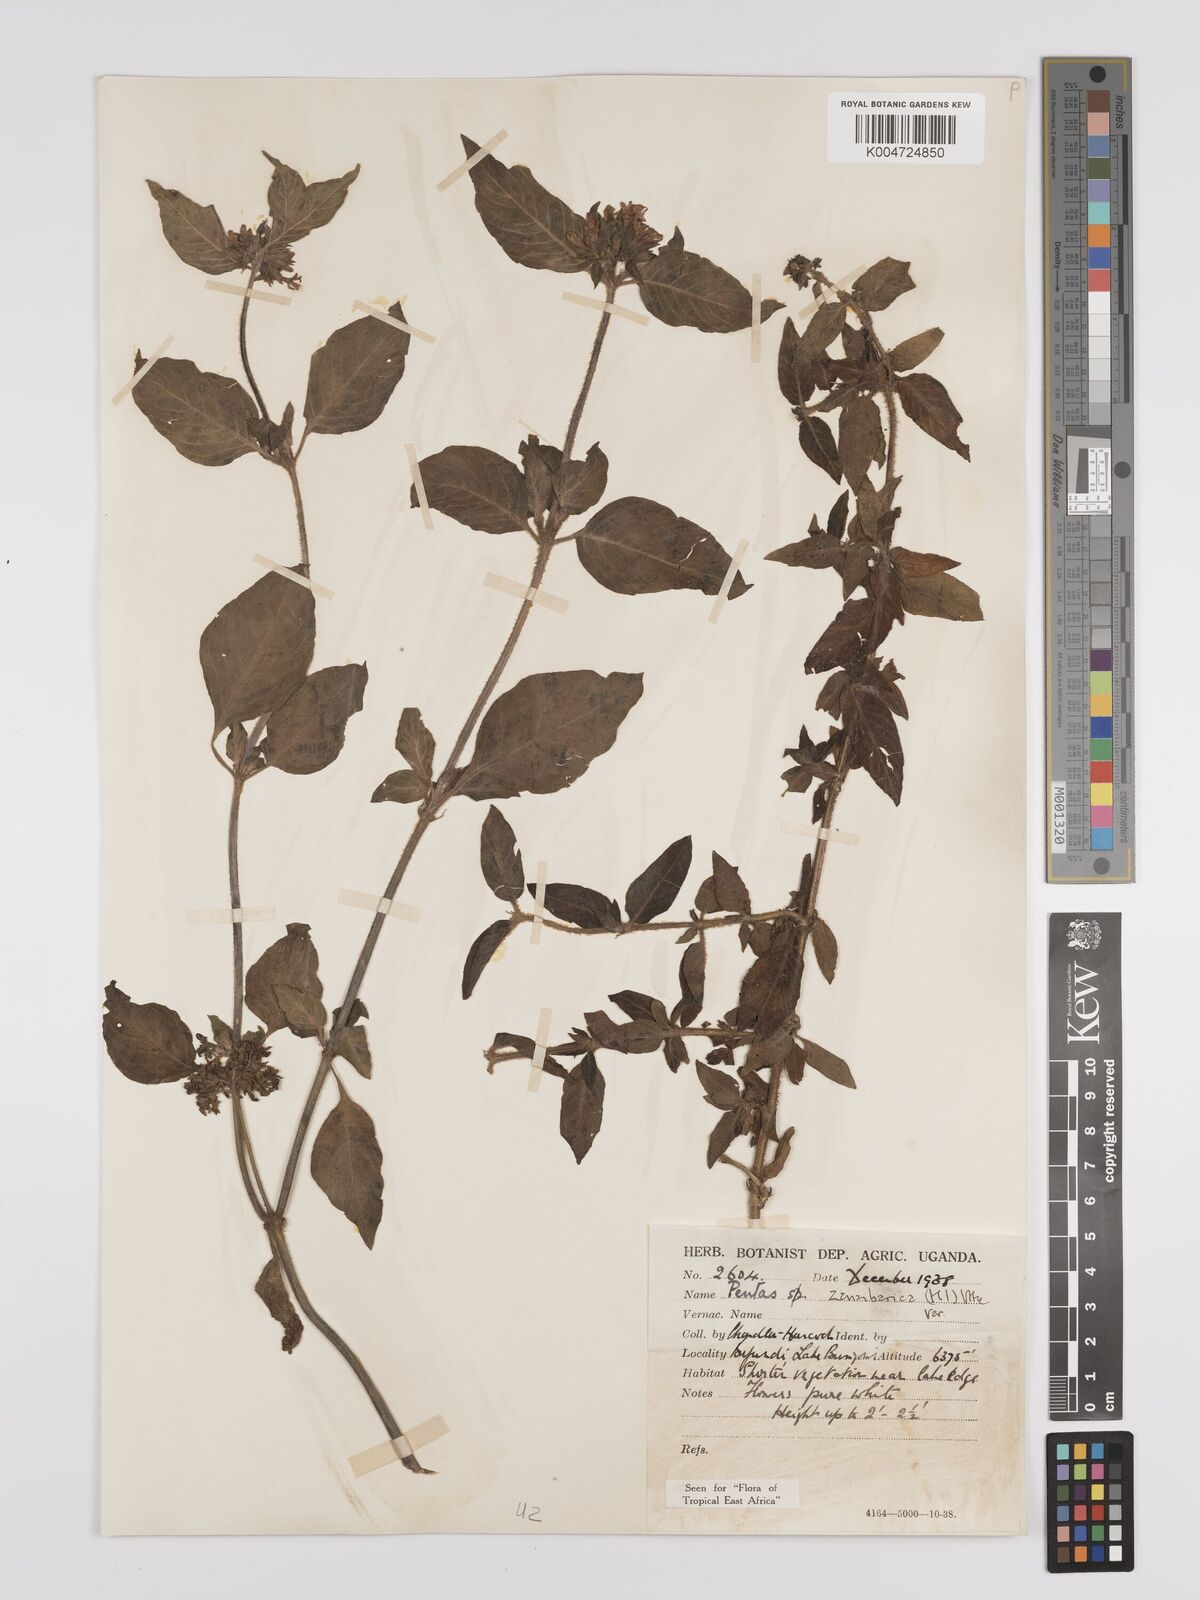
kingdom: Plantae
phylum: Tracheophyta
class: Magnoliopsida
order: Gentianales
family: Rubiaceae
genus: Pentas
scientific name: Pentas zanzibarica
